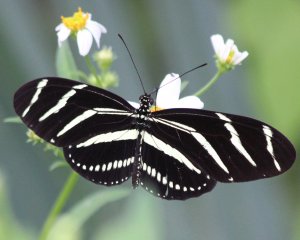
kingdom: Animalia
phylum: Arthropoda
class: Insecta
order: Lepidoptera
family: Nymphalidae
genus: Heliconius
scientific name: Heliconius charithonia
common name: Zebra Longwing
